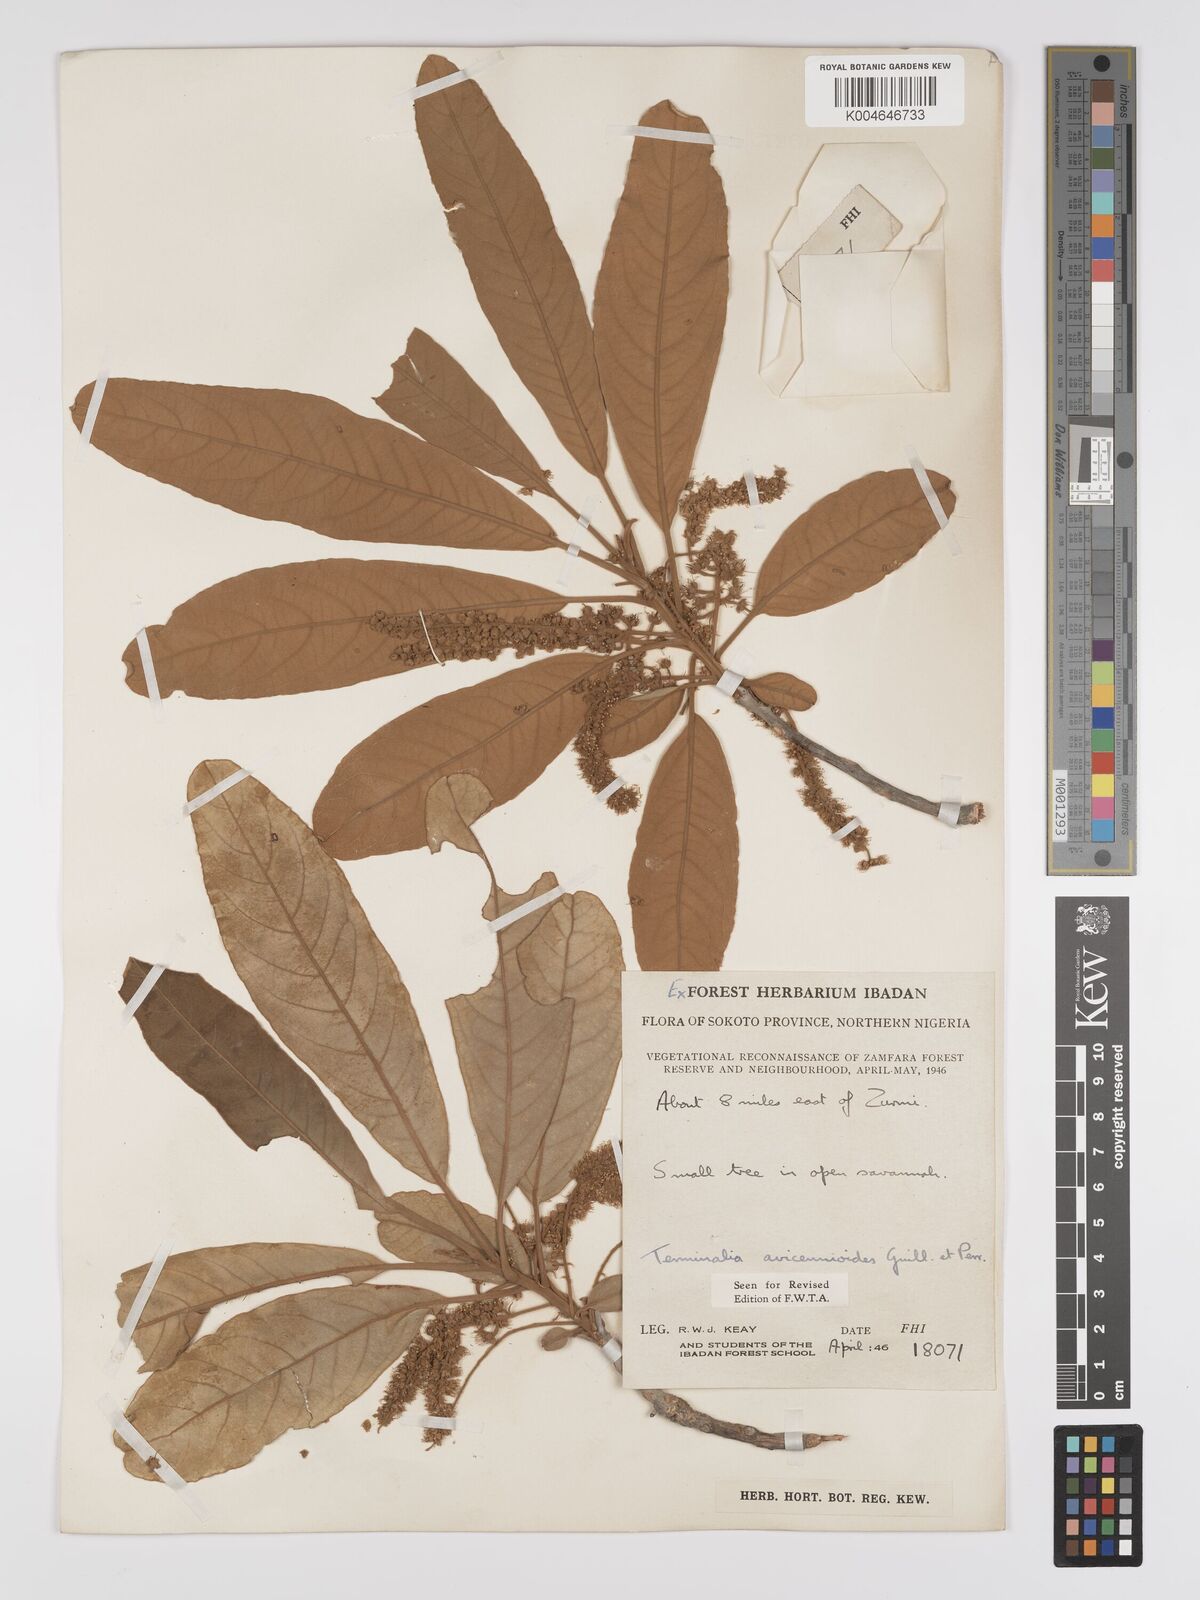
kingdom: Plantae
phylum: Tracheophyta
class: Magnoliopsida
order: Myrtales
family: Combretaceae
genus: Terminalia
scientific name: Terminalia avicennioides
